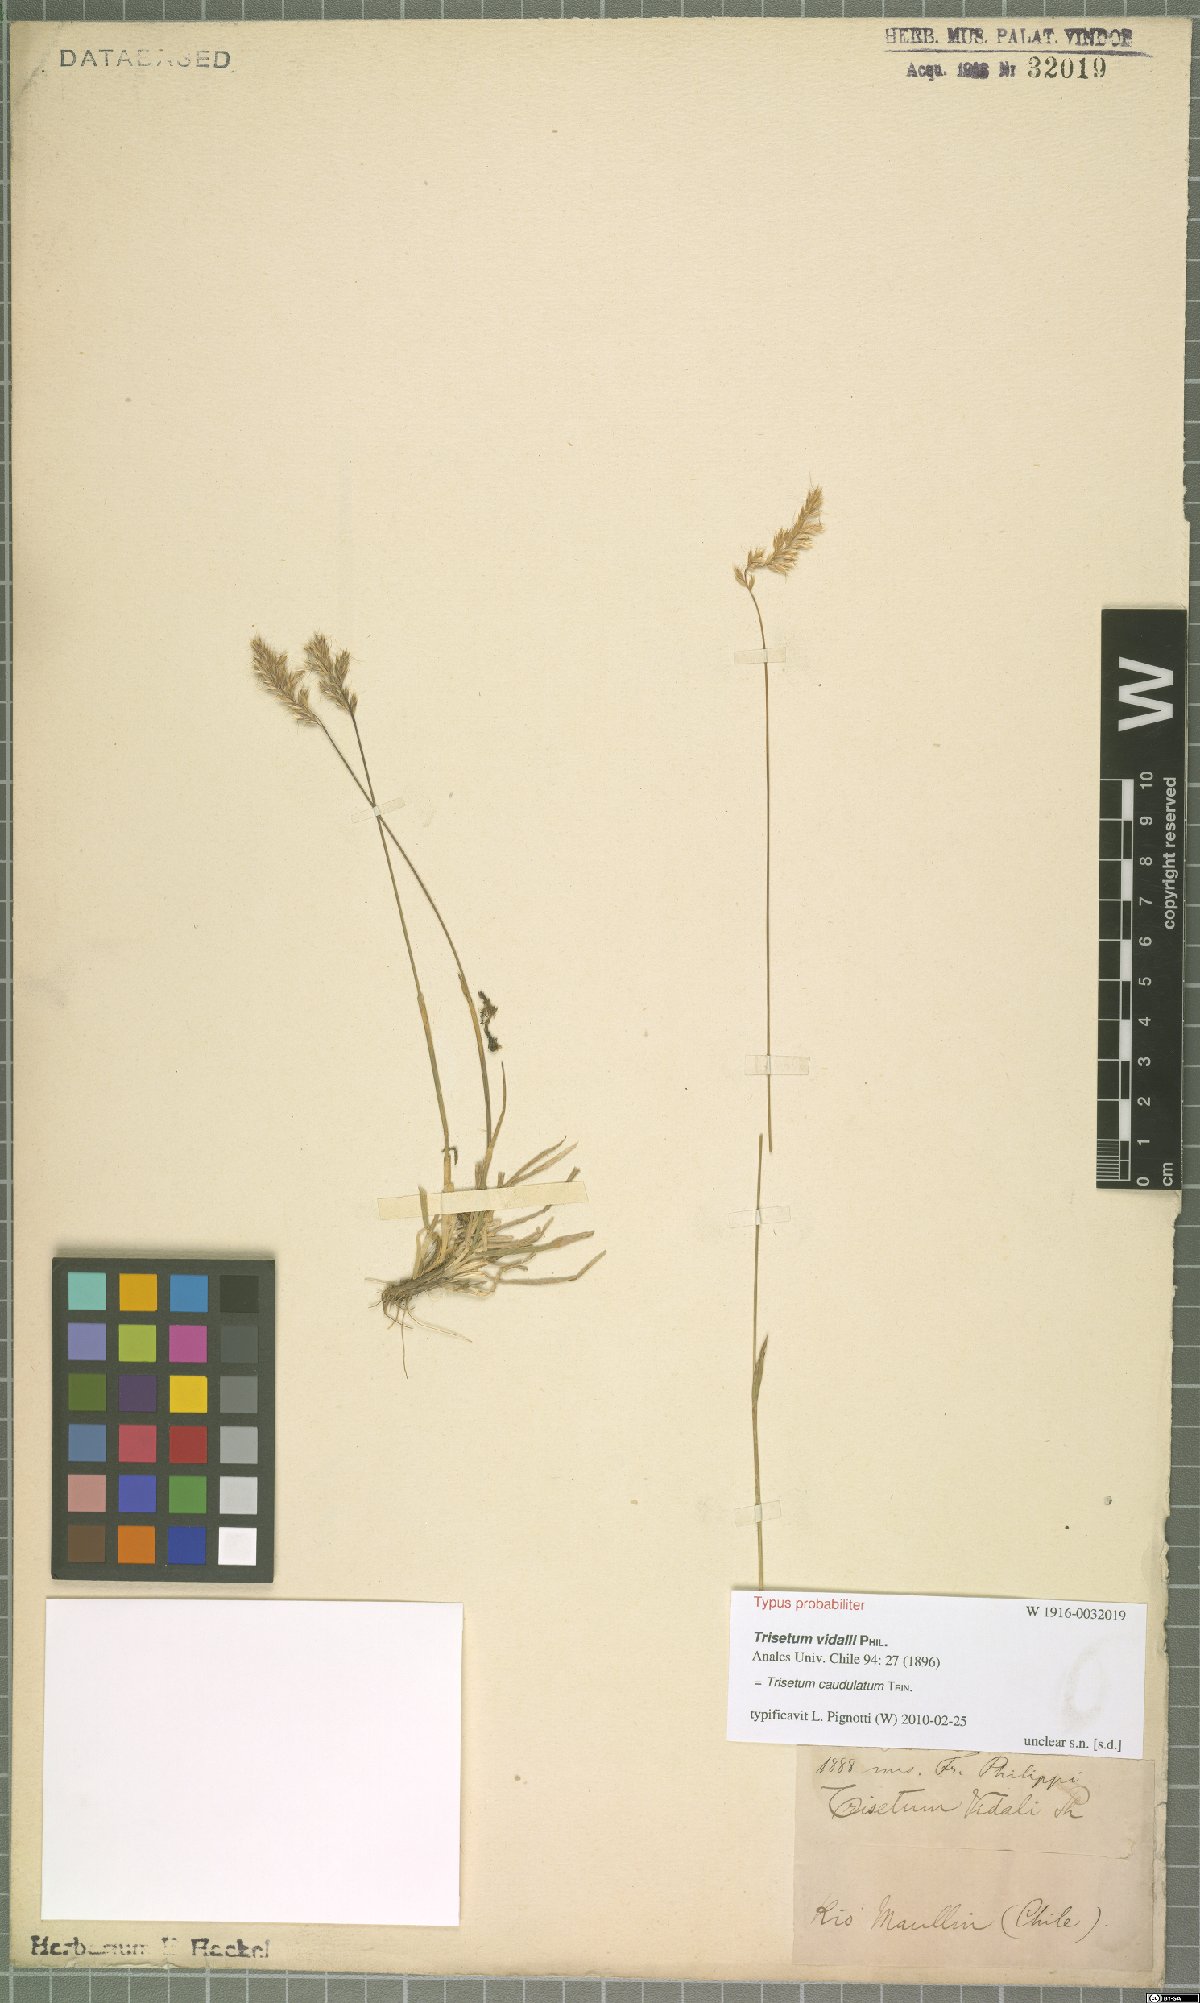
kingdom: Plantae
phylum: Tracheophyta
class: Liliopsida
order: Poales
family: Poaceae
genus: Trisetum
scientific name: Trisetum caudulatum
